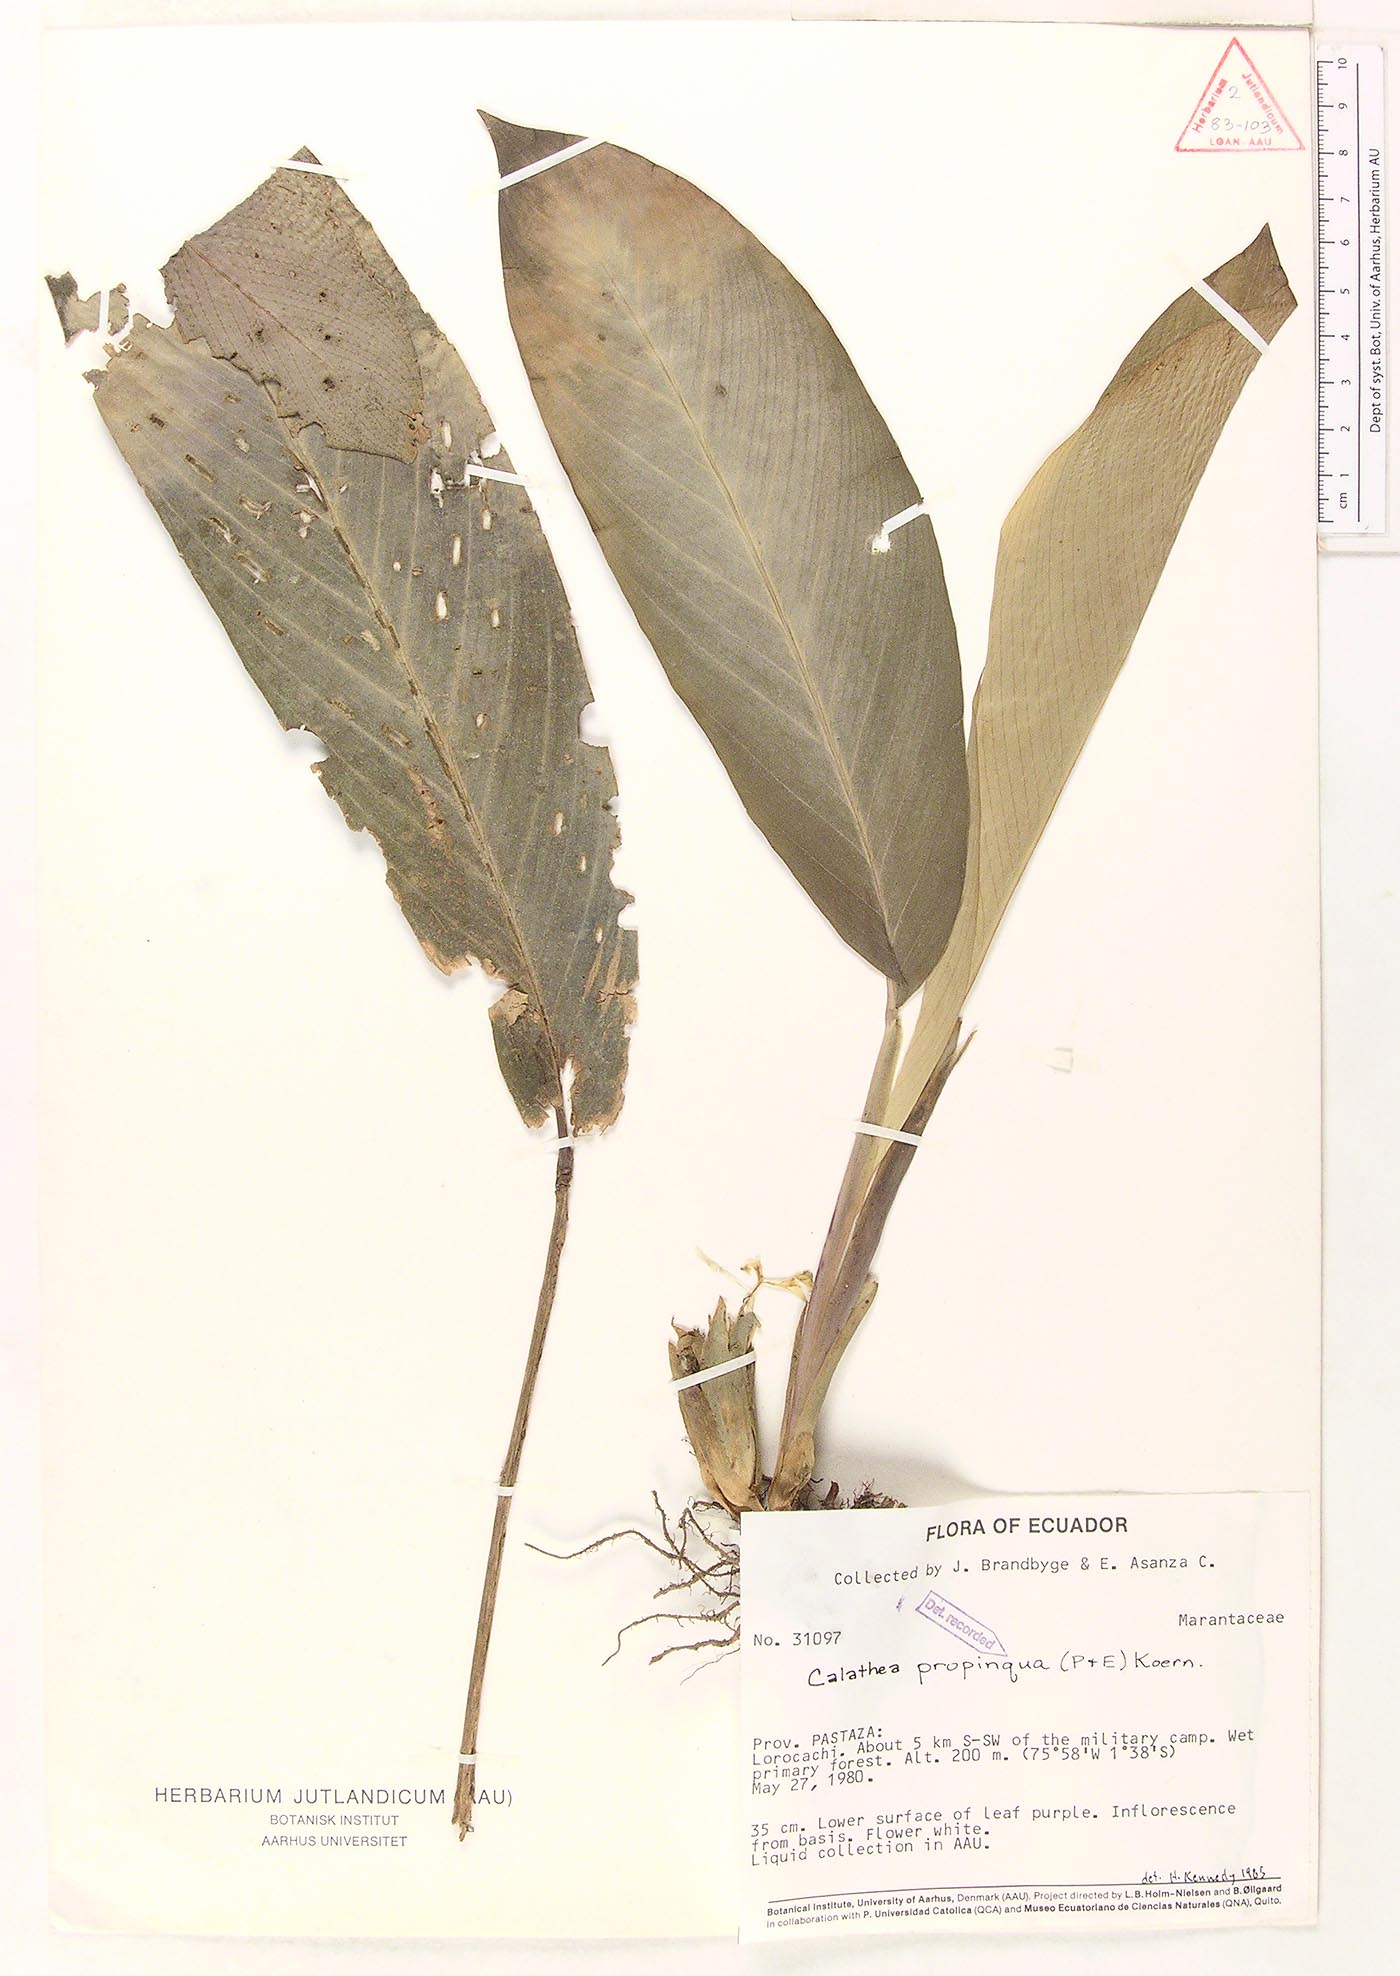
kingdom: Plantae
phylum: Tracheophyta
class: Liliopsida
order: Zingiberales
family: Marantaceae
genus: Goeppertia
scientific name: Goeppertia propinqua
